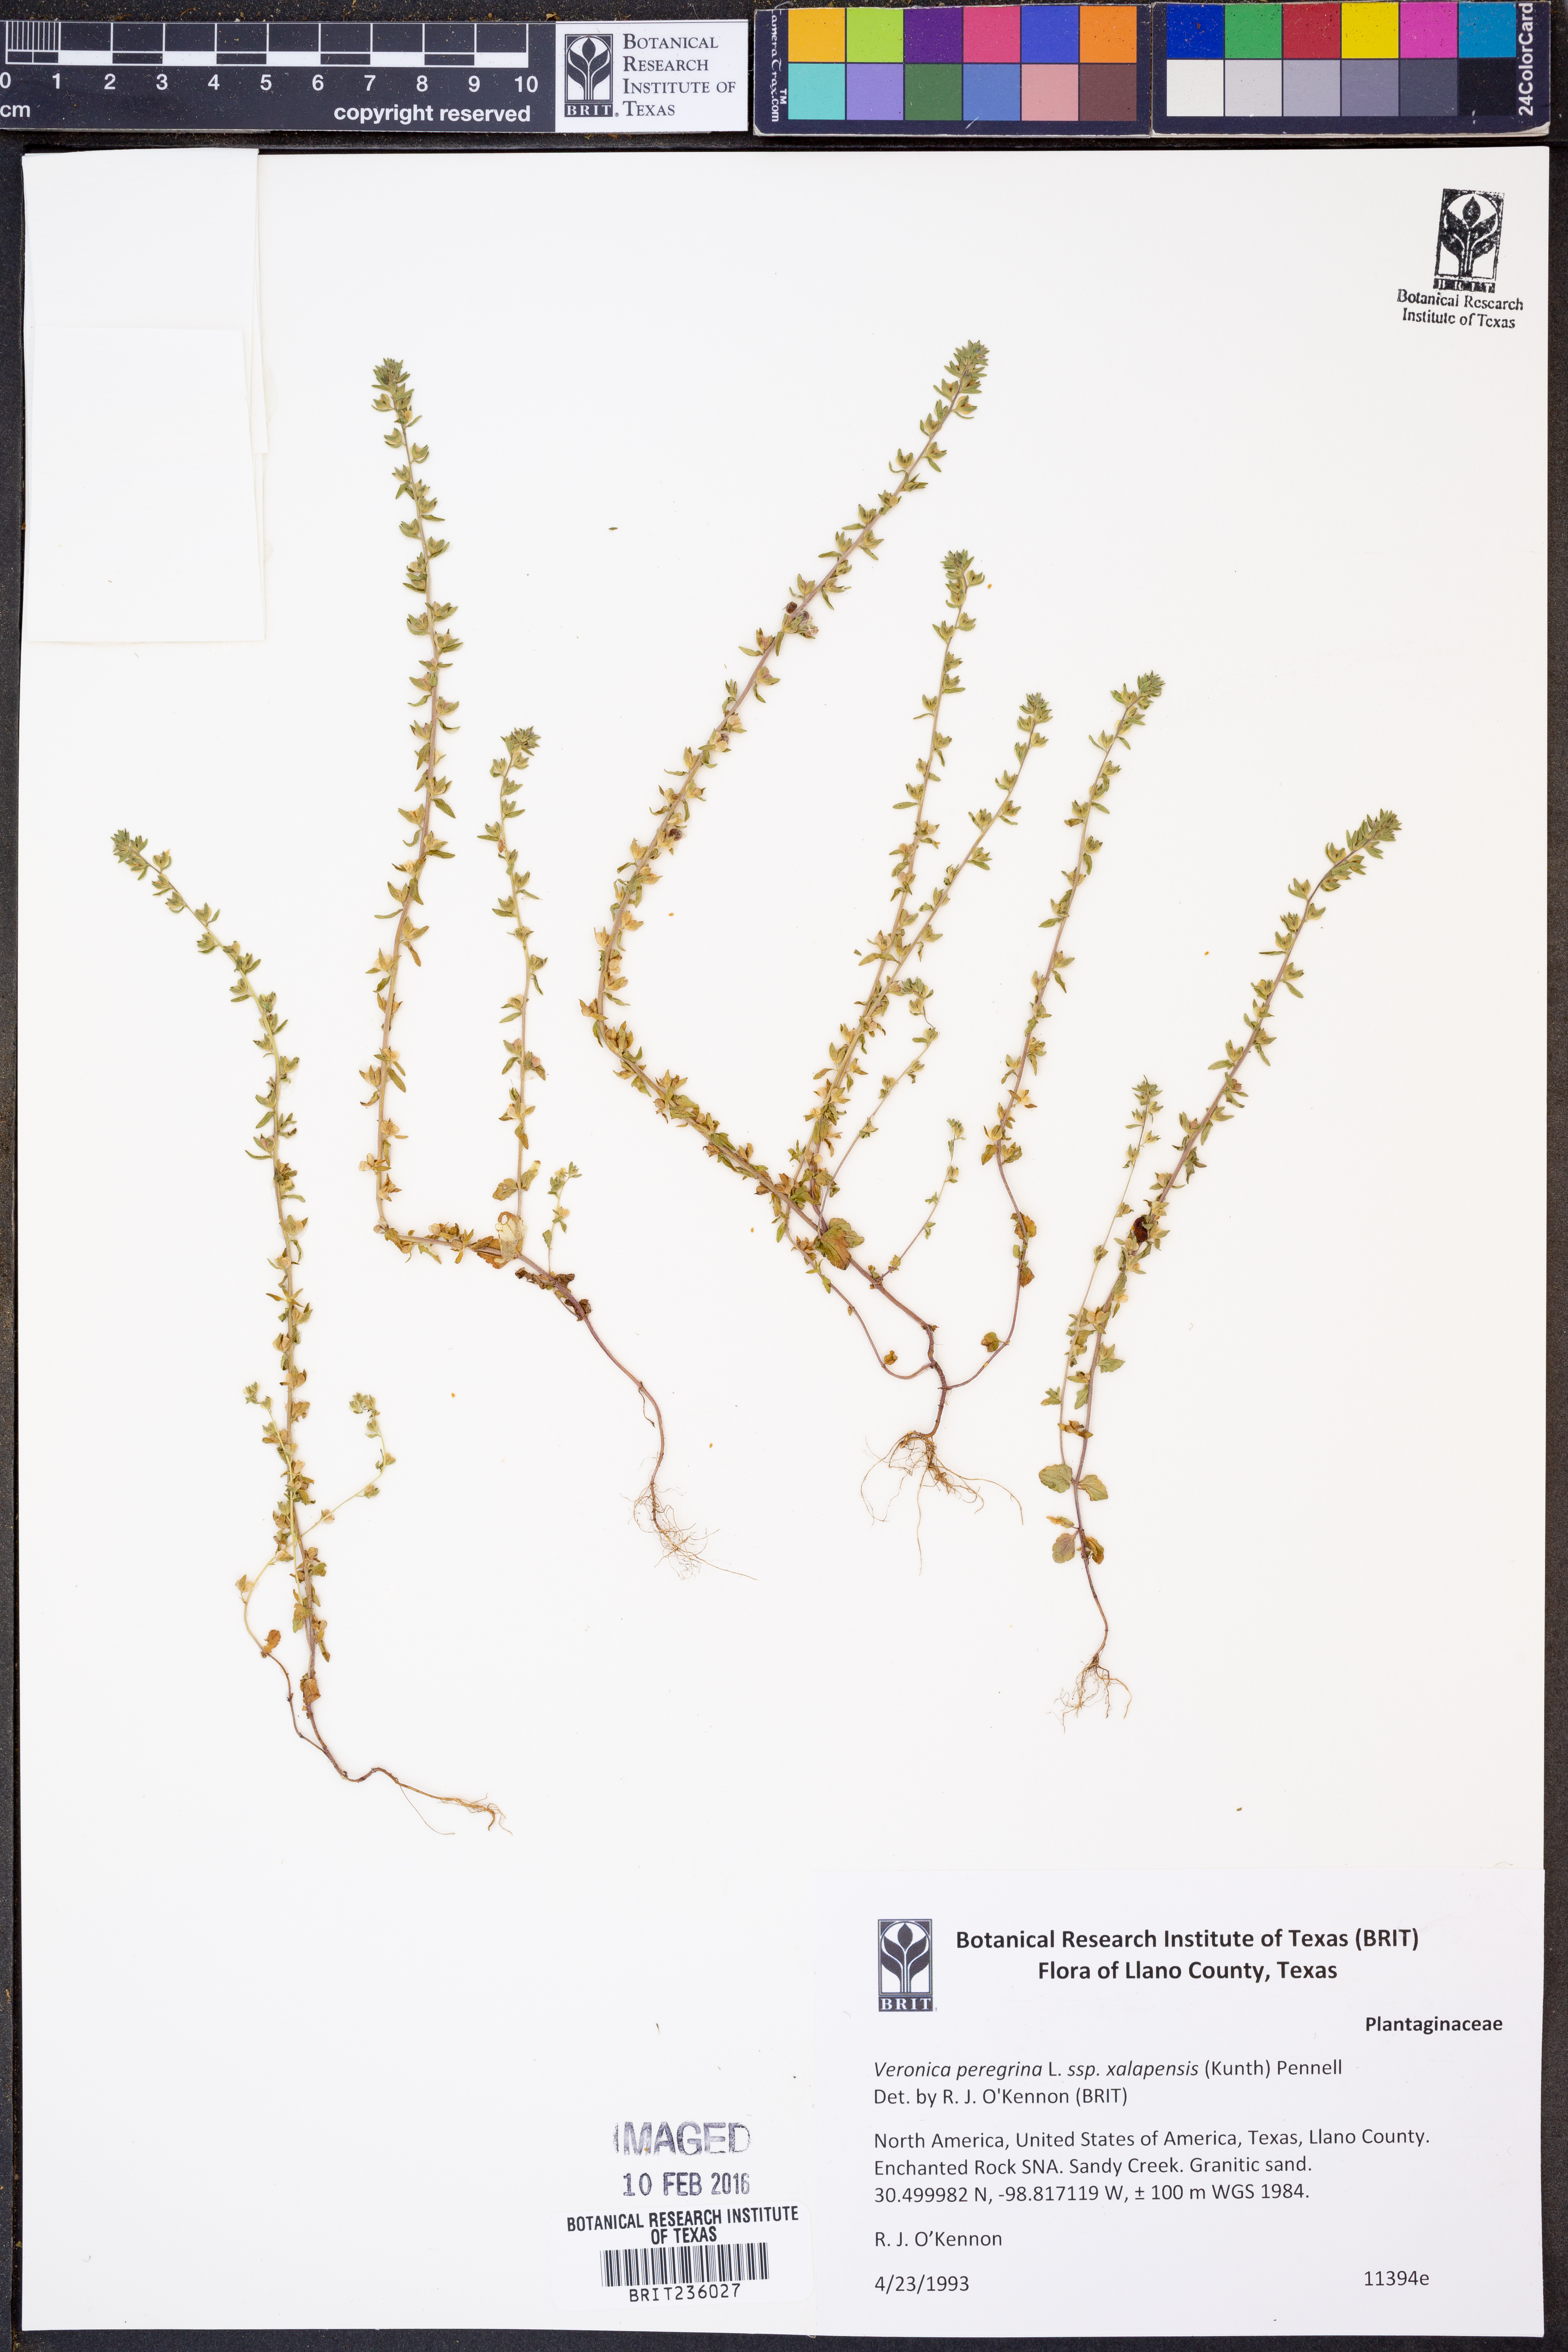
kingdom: Plantae
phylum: Tracheophyta
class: Magnoliopsida
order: Lamiales
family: Plantaginaceae
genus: Veronica
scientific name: Veronica peregrina
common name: Neckweed
